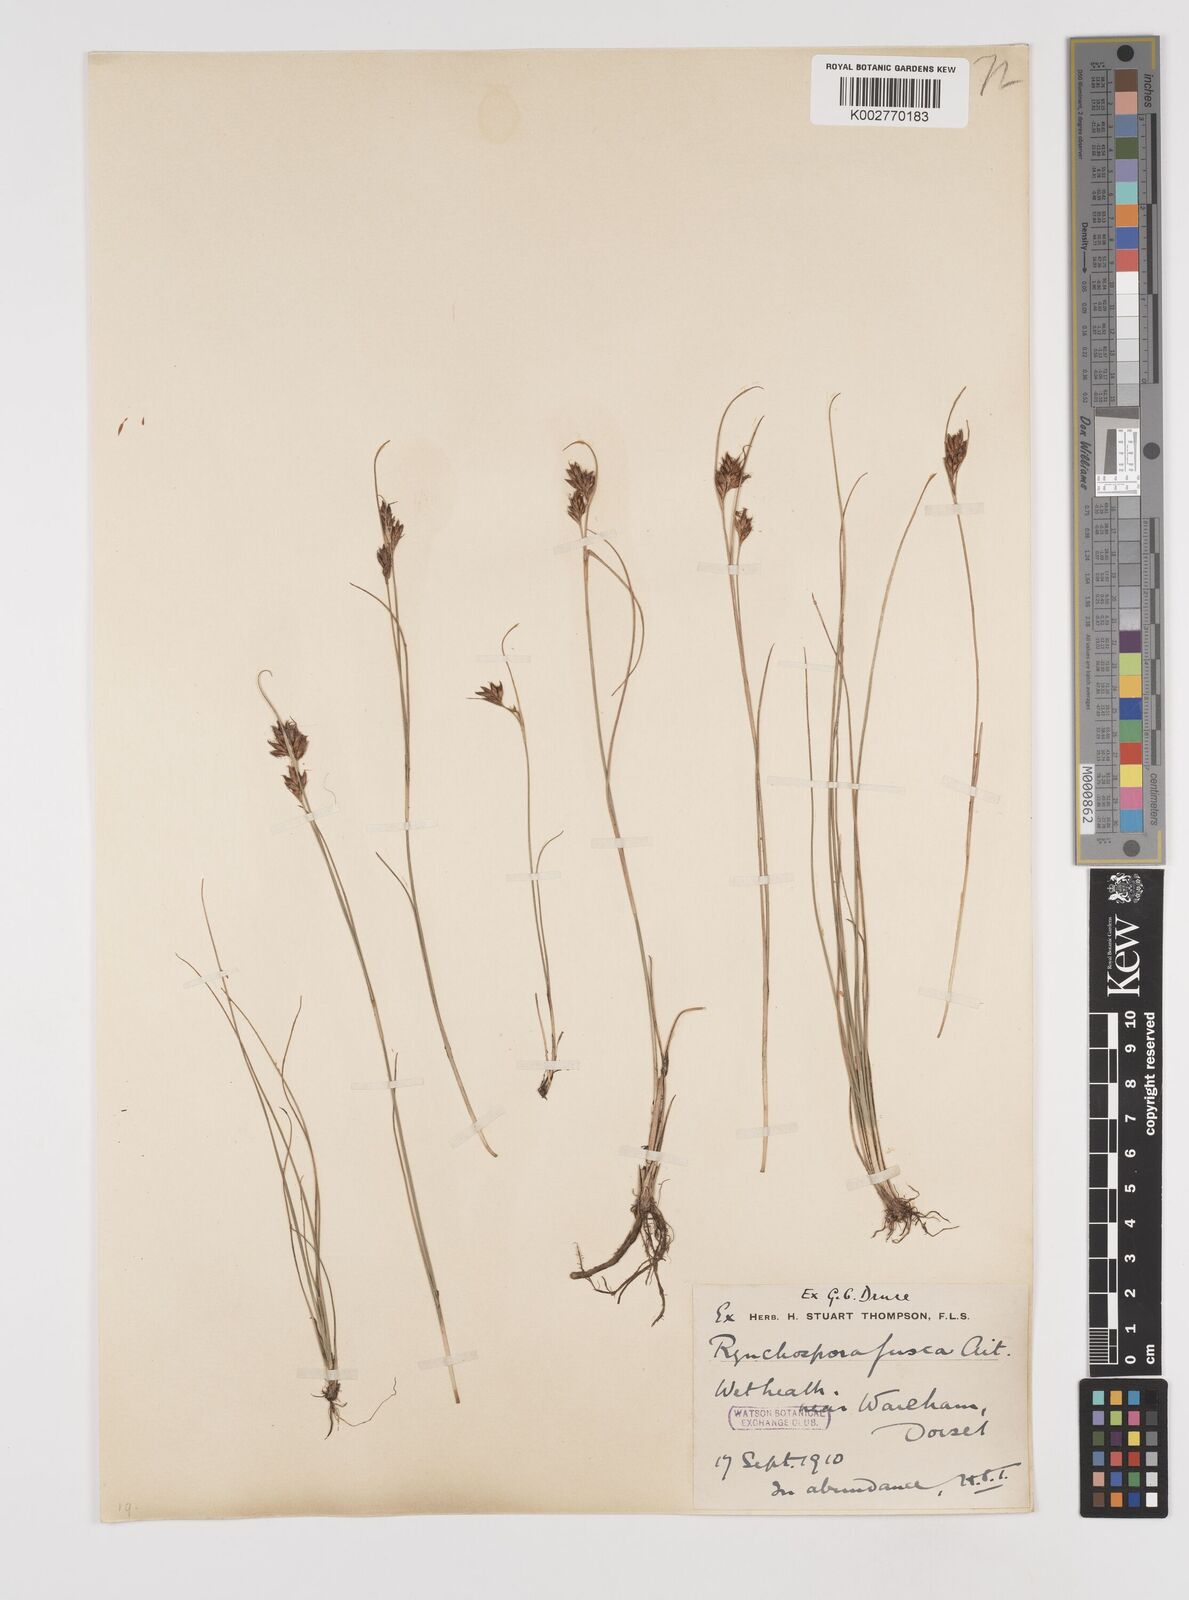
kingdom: Plantae
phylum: Tracheophyta
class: Liliopsida
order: Poales
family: Cyperaceae
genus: Rhynchospora
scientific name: Rhynchospora fusca
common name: Brown beak-sedge
